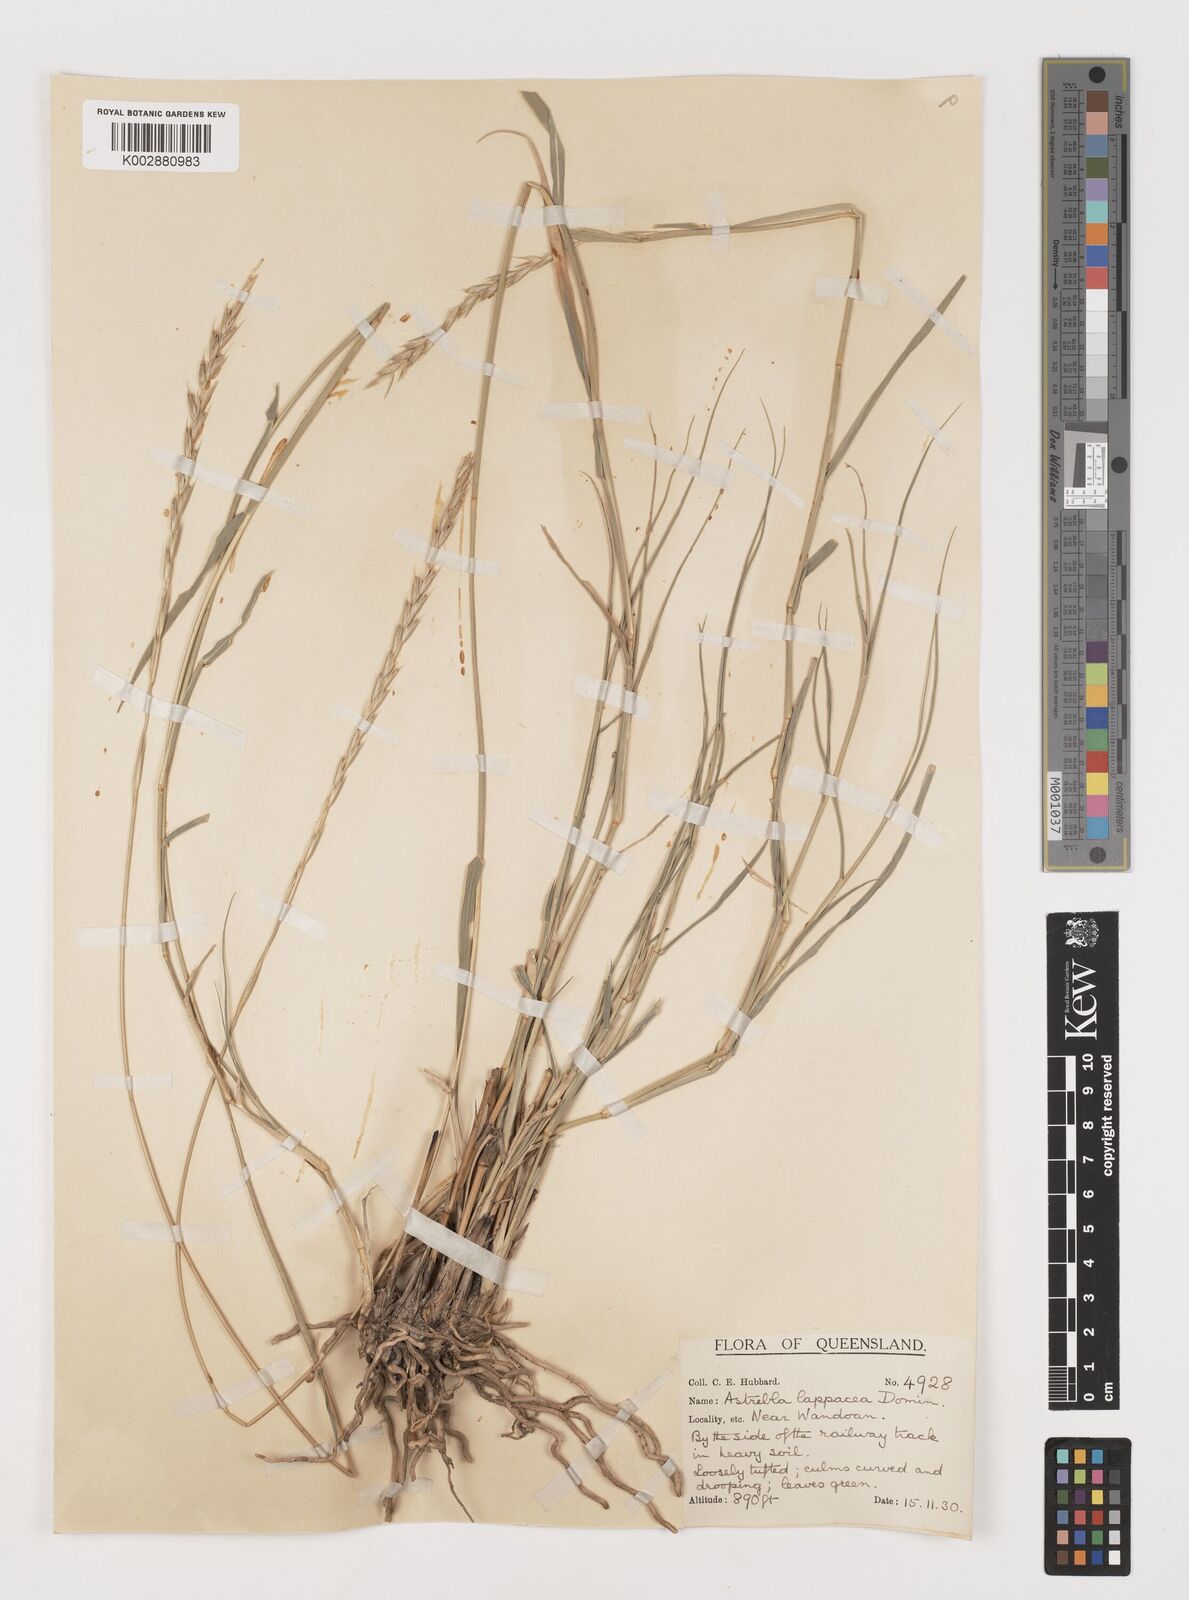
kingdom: Plantae
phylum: Tracheophyta
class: Liliopsida
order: Poales
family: Poaceae
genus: Astrebla
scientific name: Astrebla lappacea
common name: Curly mitchell grass
